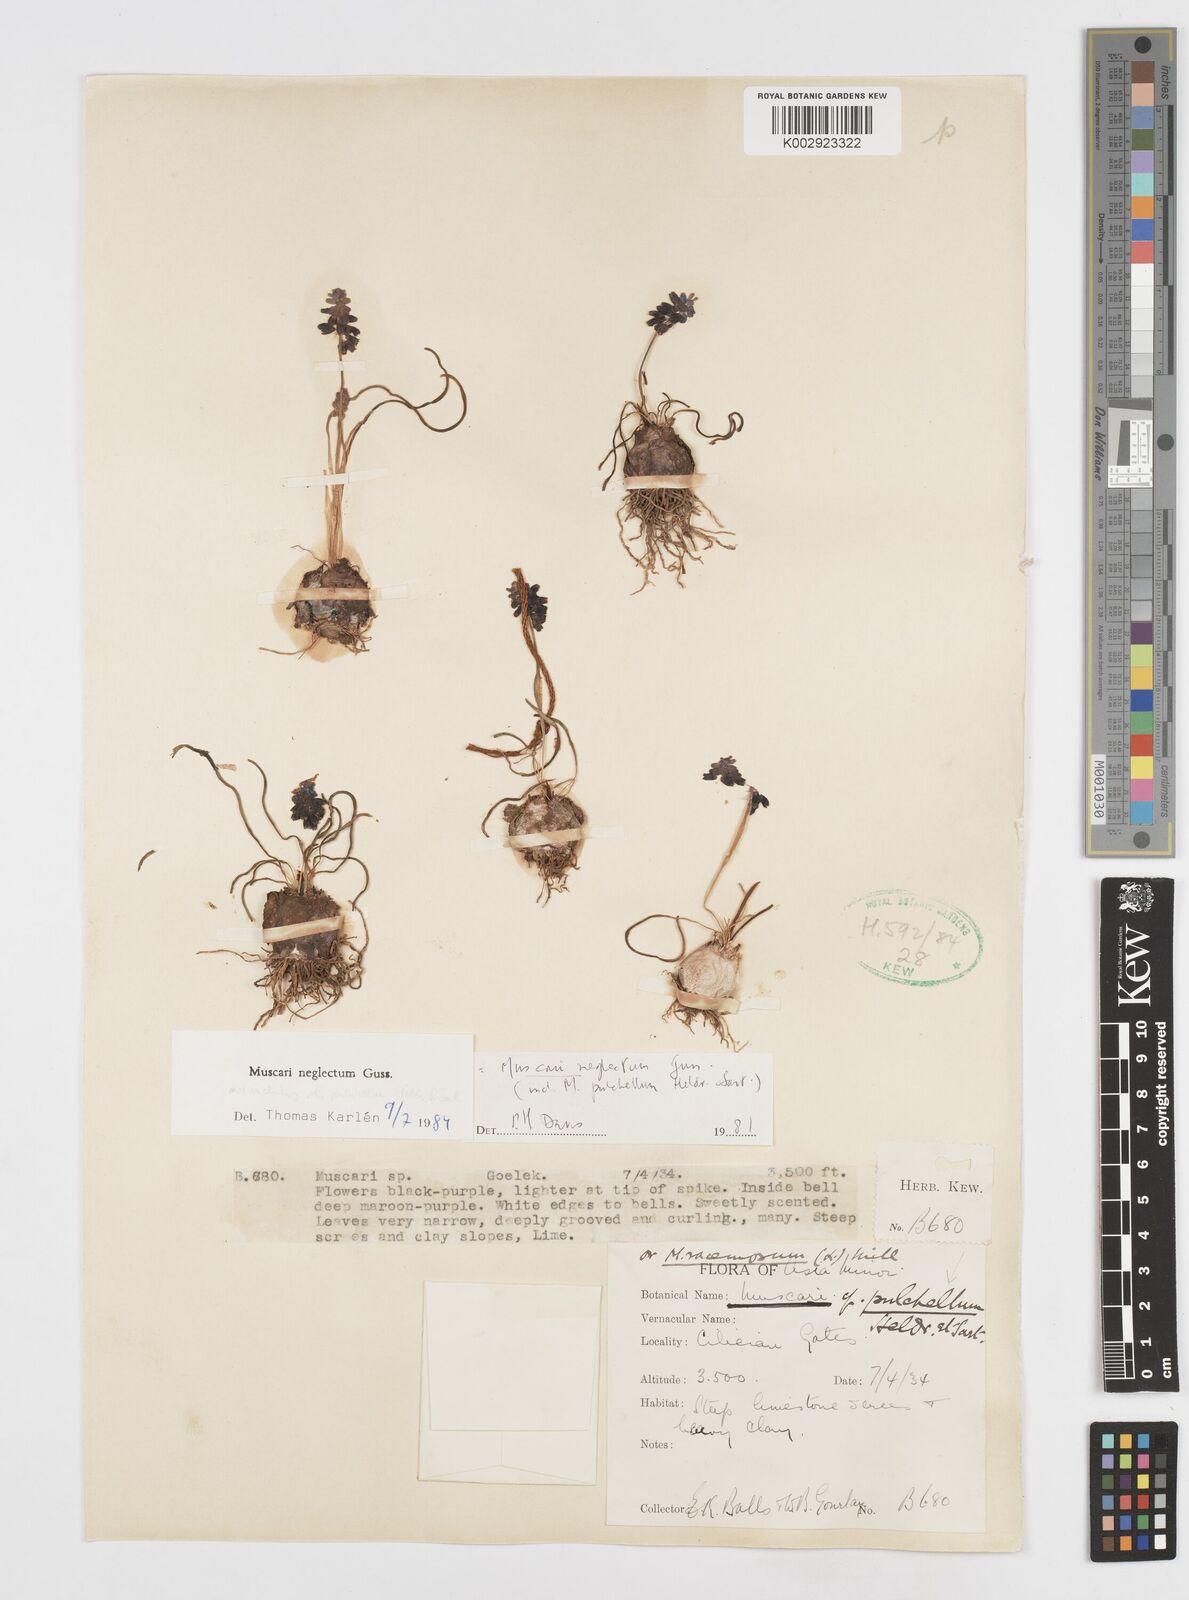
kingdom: Plantae
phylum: Tracheophyta
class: Liliopsida
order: Asparagales
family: Asparagaceae
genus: Muscari
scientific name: Muscari neglectum
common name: Grape-hyacinth
